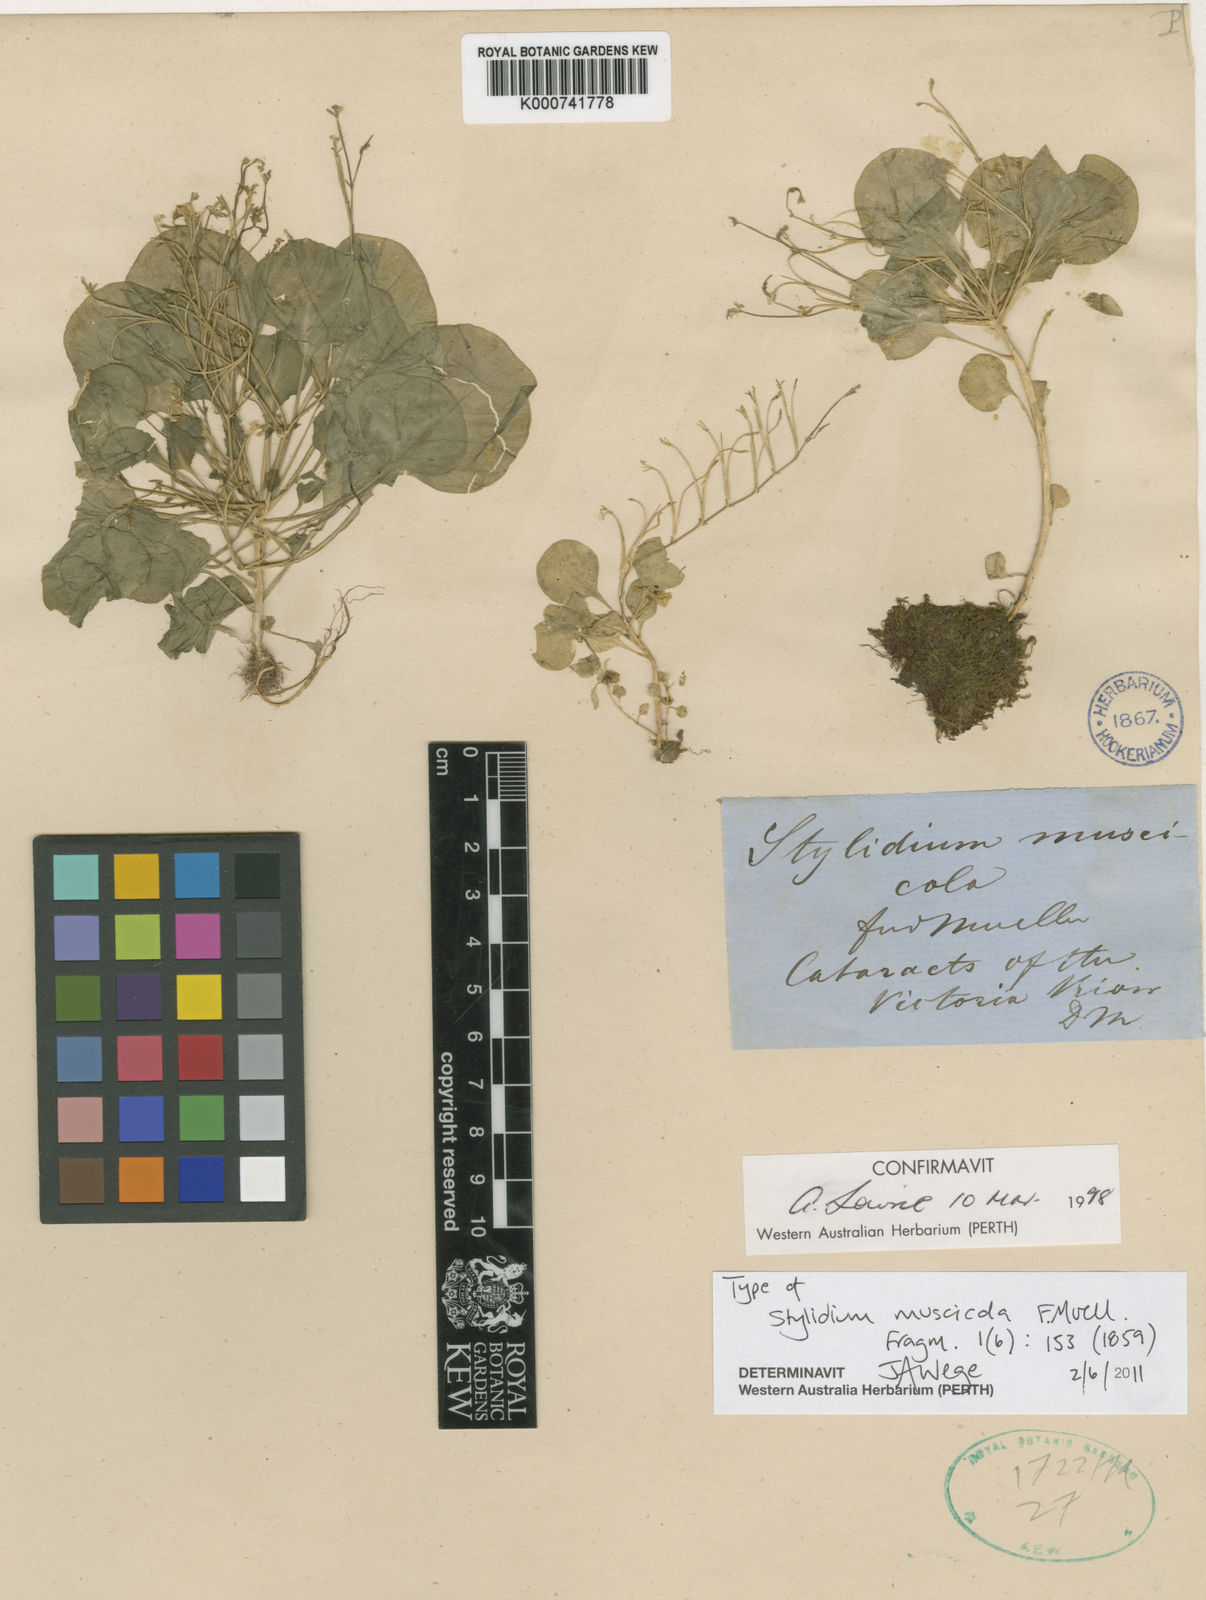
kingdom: Plantae
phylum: Tracheophyta
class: Magnoliopsida
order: Asterales
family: Stylidiaceae
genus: Stylidium
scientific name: Stylidium muscicola
